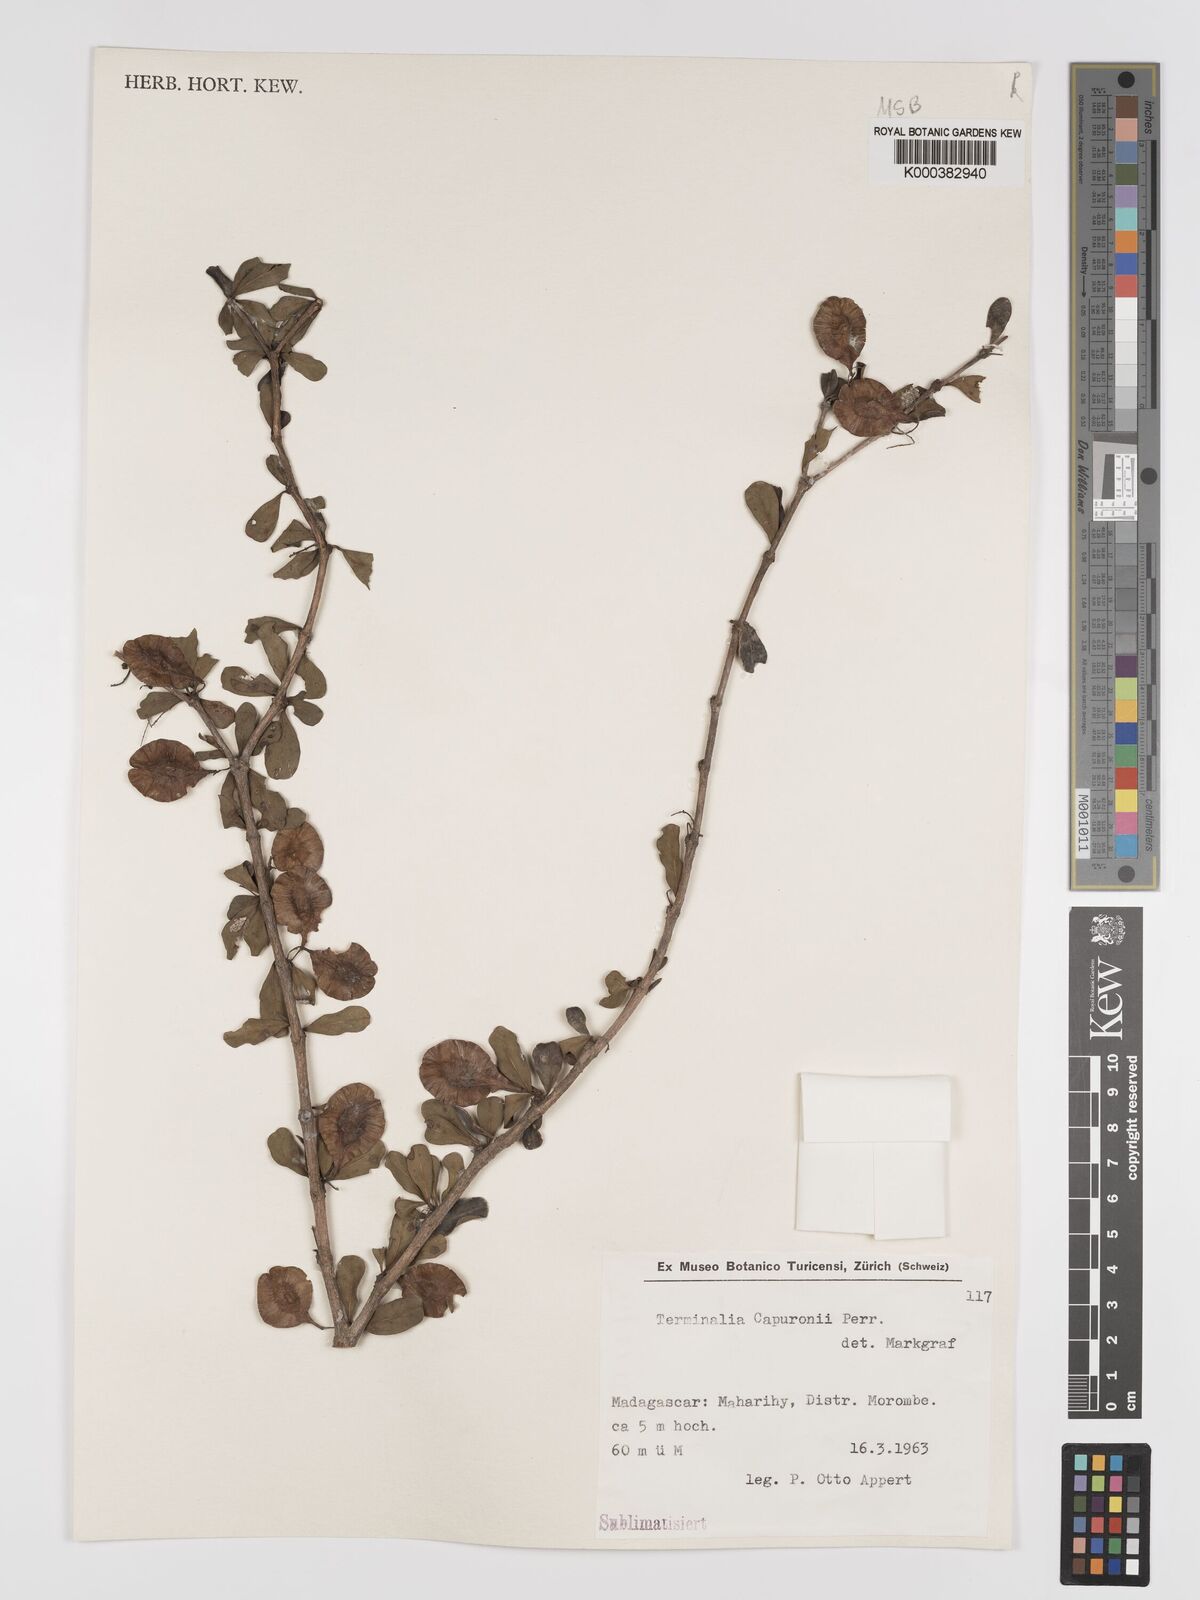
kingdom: Plantae
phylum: Tracheophyta
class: Magnoliopsida
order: Myrtales
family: Combretaceae
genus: Terminalia
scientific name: Terminalia seyrigii
